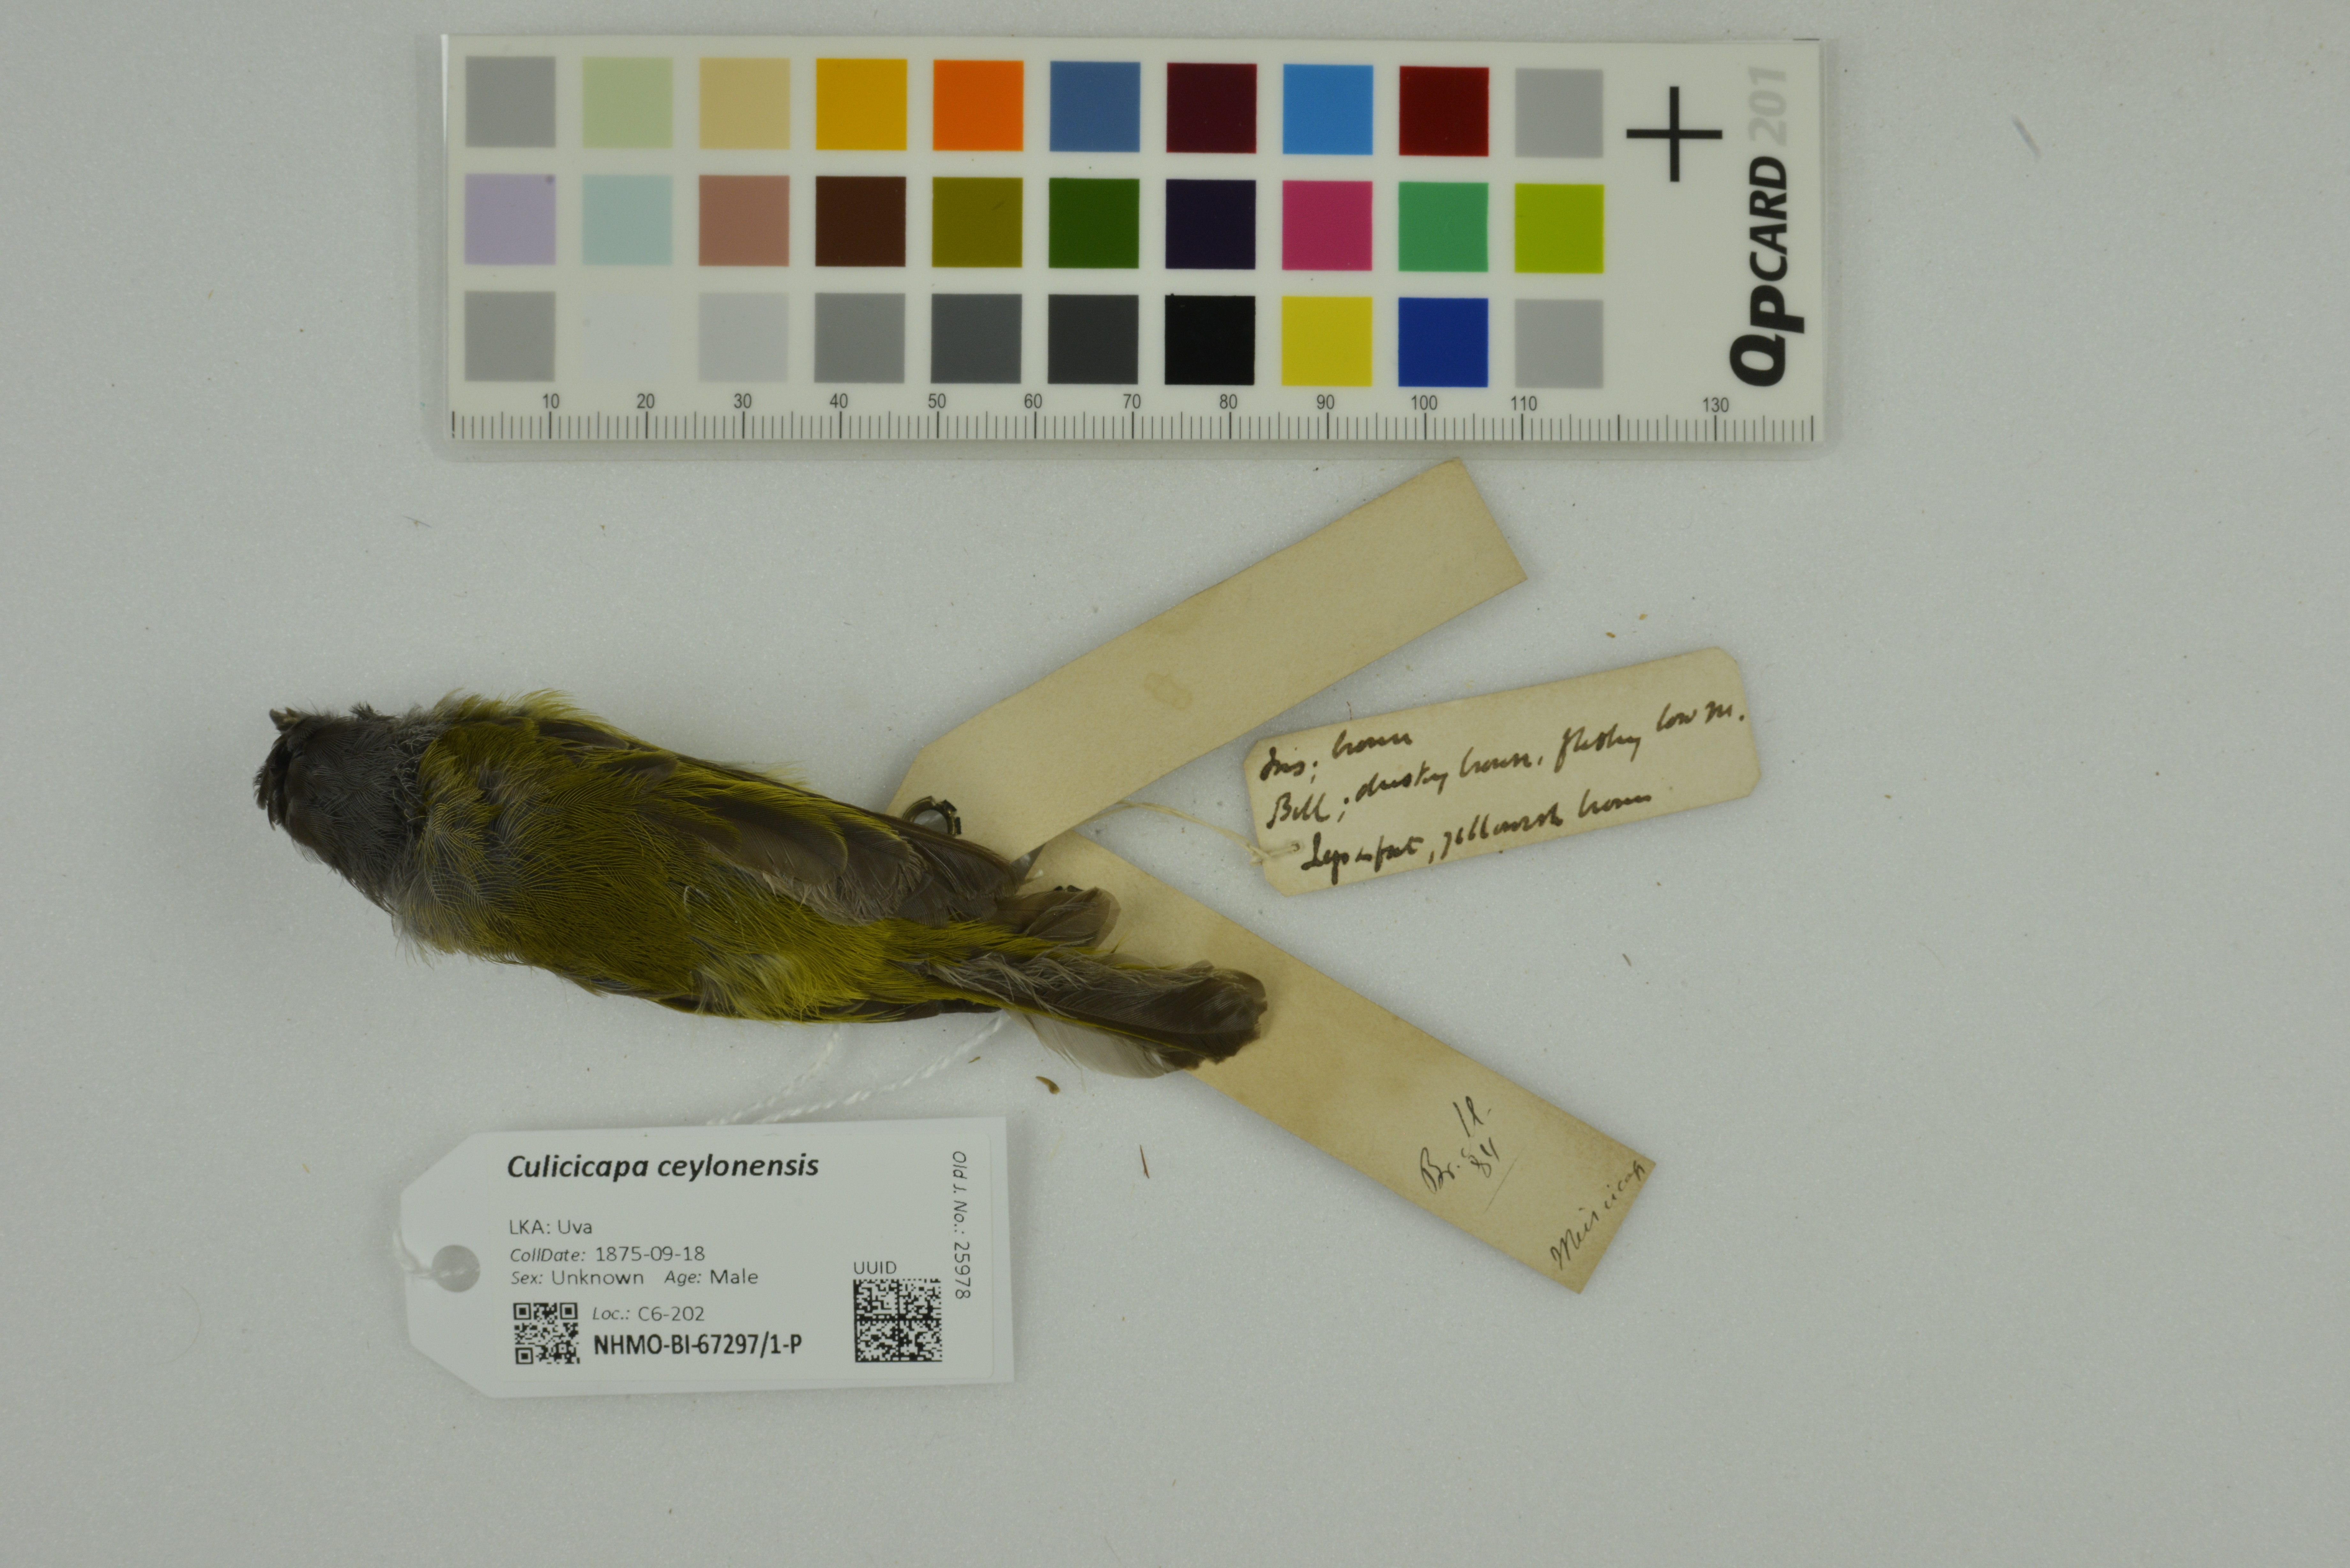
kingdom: Animalia
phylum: Chordata
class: Aves
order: Passeriformes
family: Stenostiridae
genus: Culicicapa
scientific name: Culicicapa ceylonensis
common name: Grey-headed canary-flycatcher
